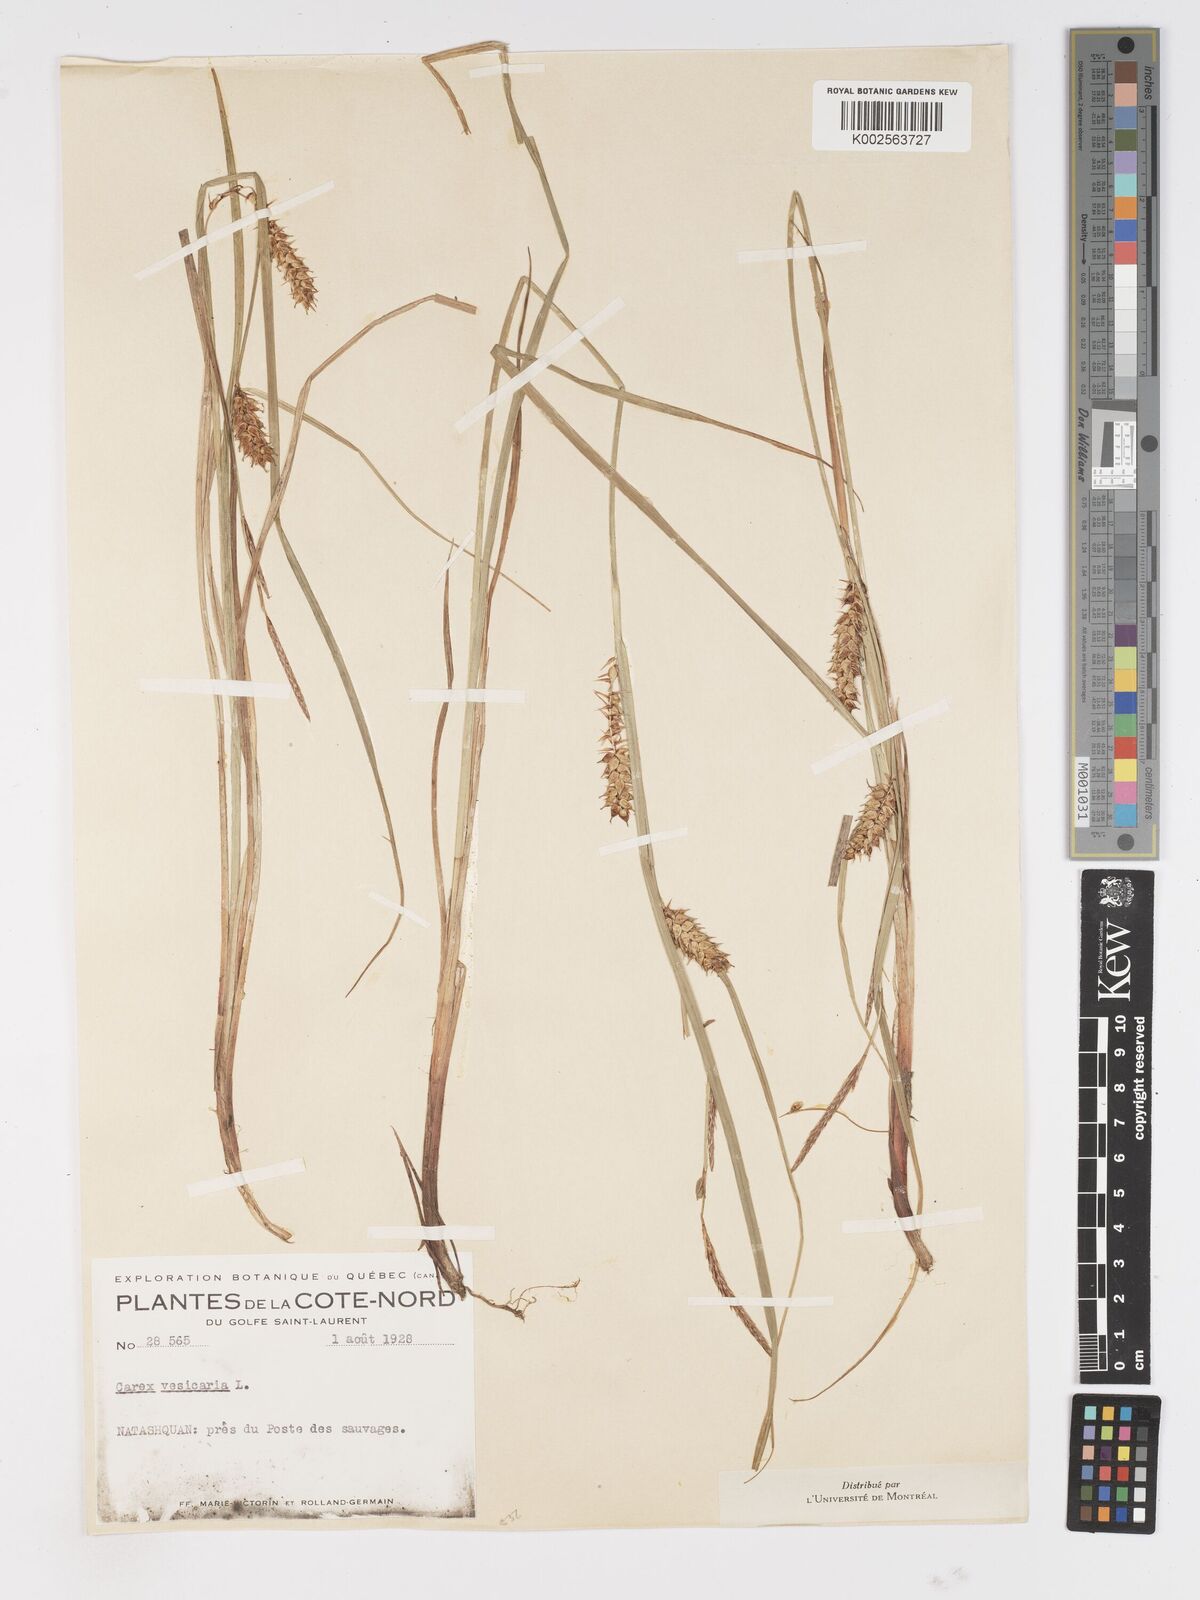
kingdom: Plantae
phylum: Tracheophyta
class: Liliopsida
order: Poales
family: Cyperaceae
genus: Carex
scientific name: Carex vesicaria
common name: Bladder-sedge
